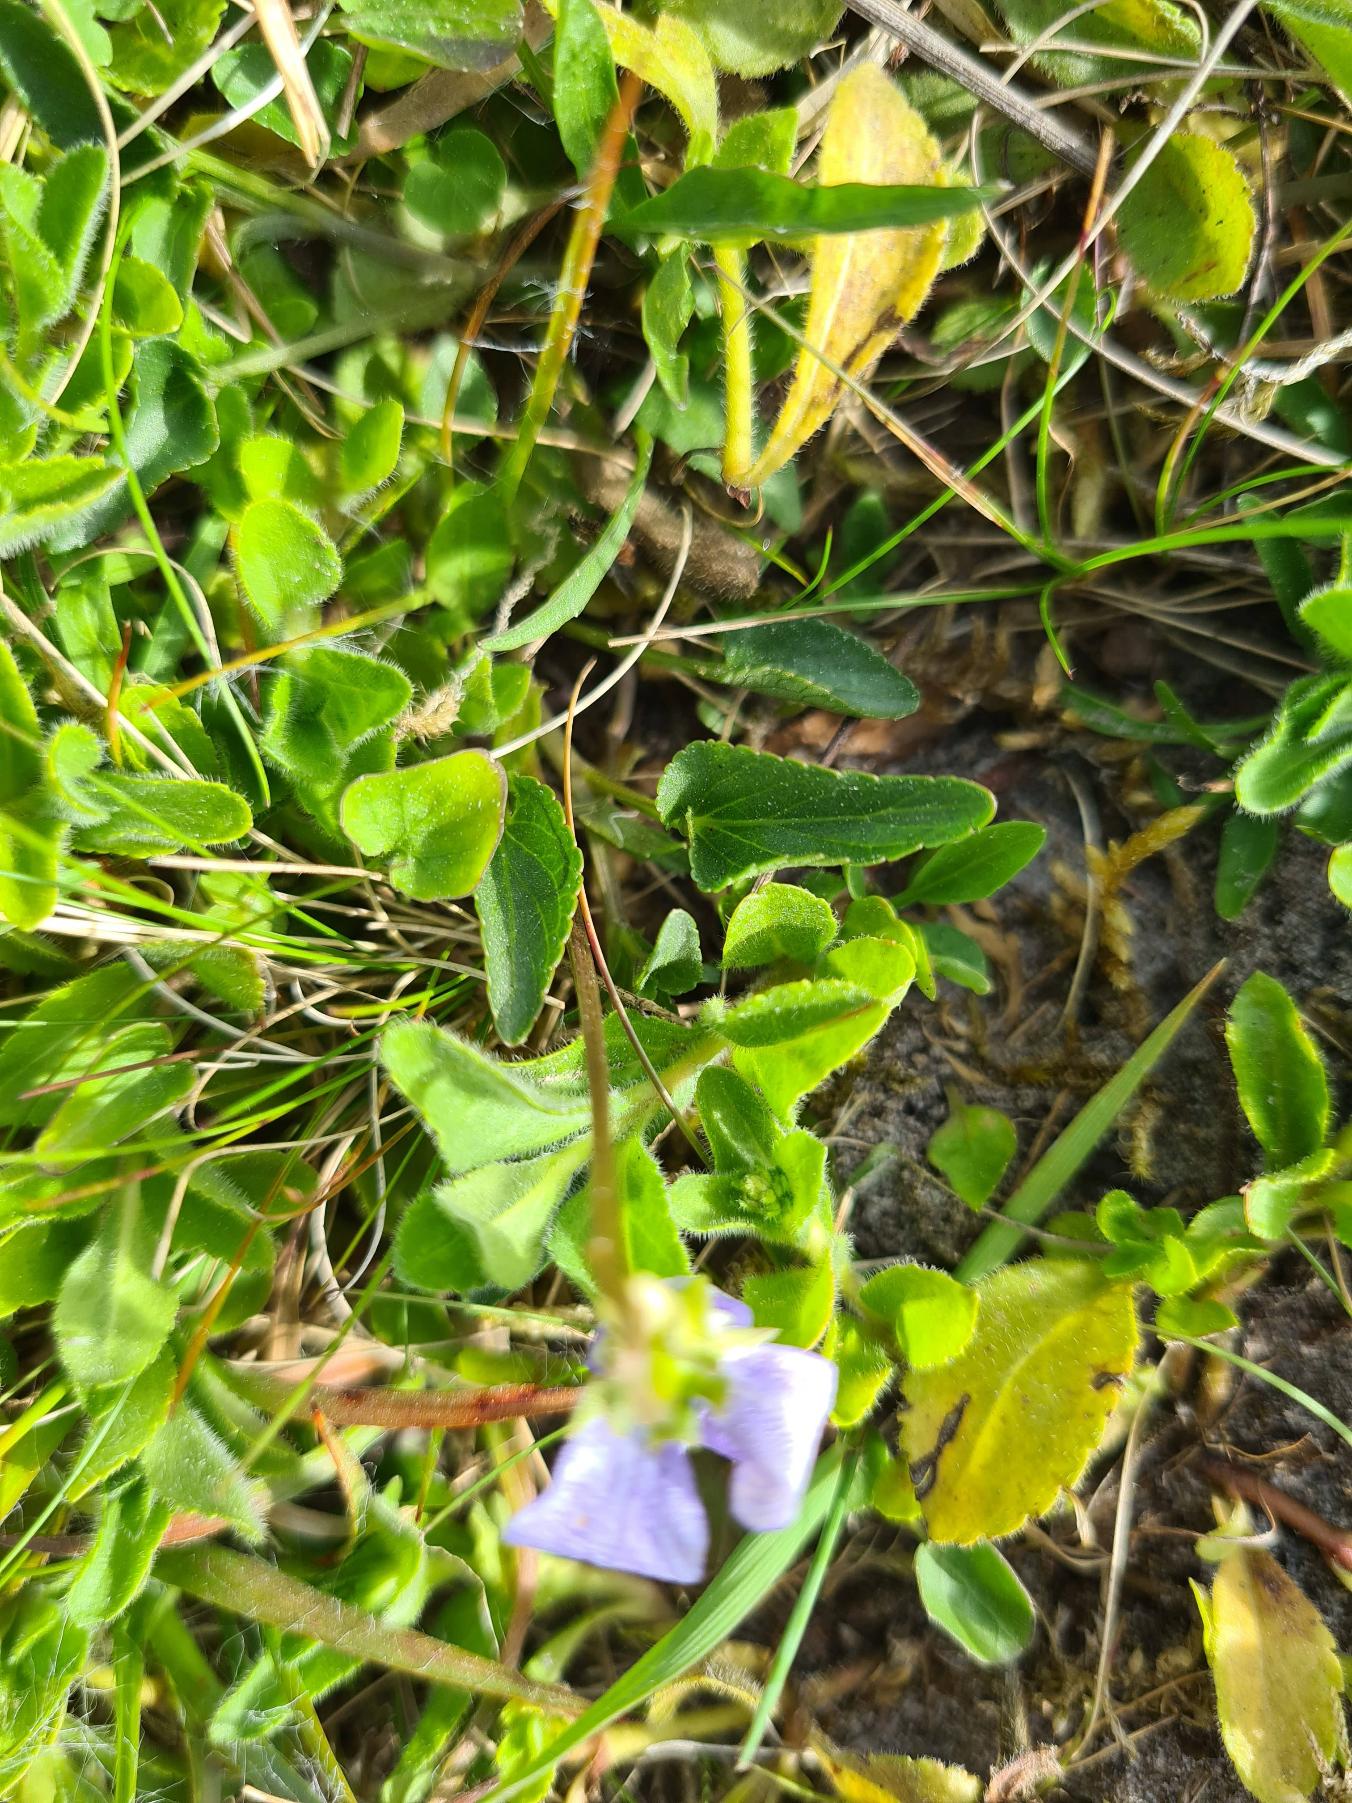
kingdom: Plantae
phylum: Tracheophyta
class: Magnoliopsida
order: Malpighiales
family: Violaceae
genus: Viola
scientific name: Viola canina
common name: Hunde-viol
